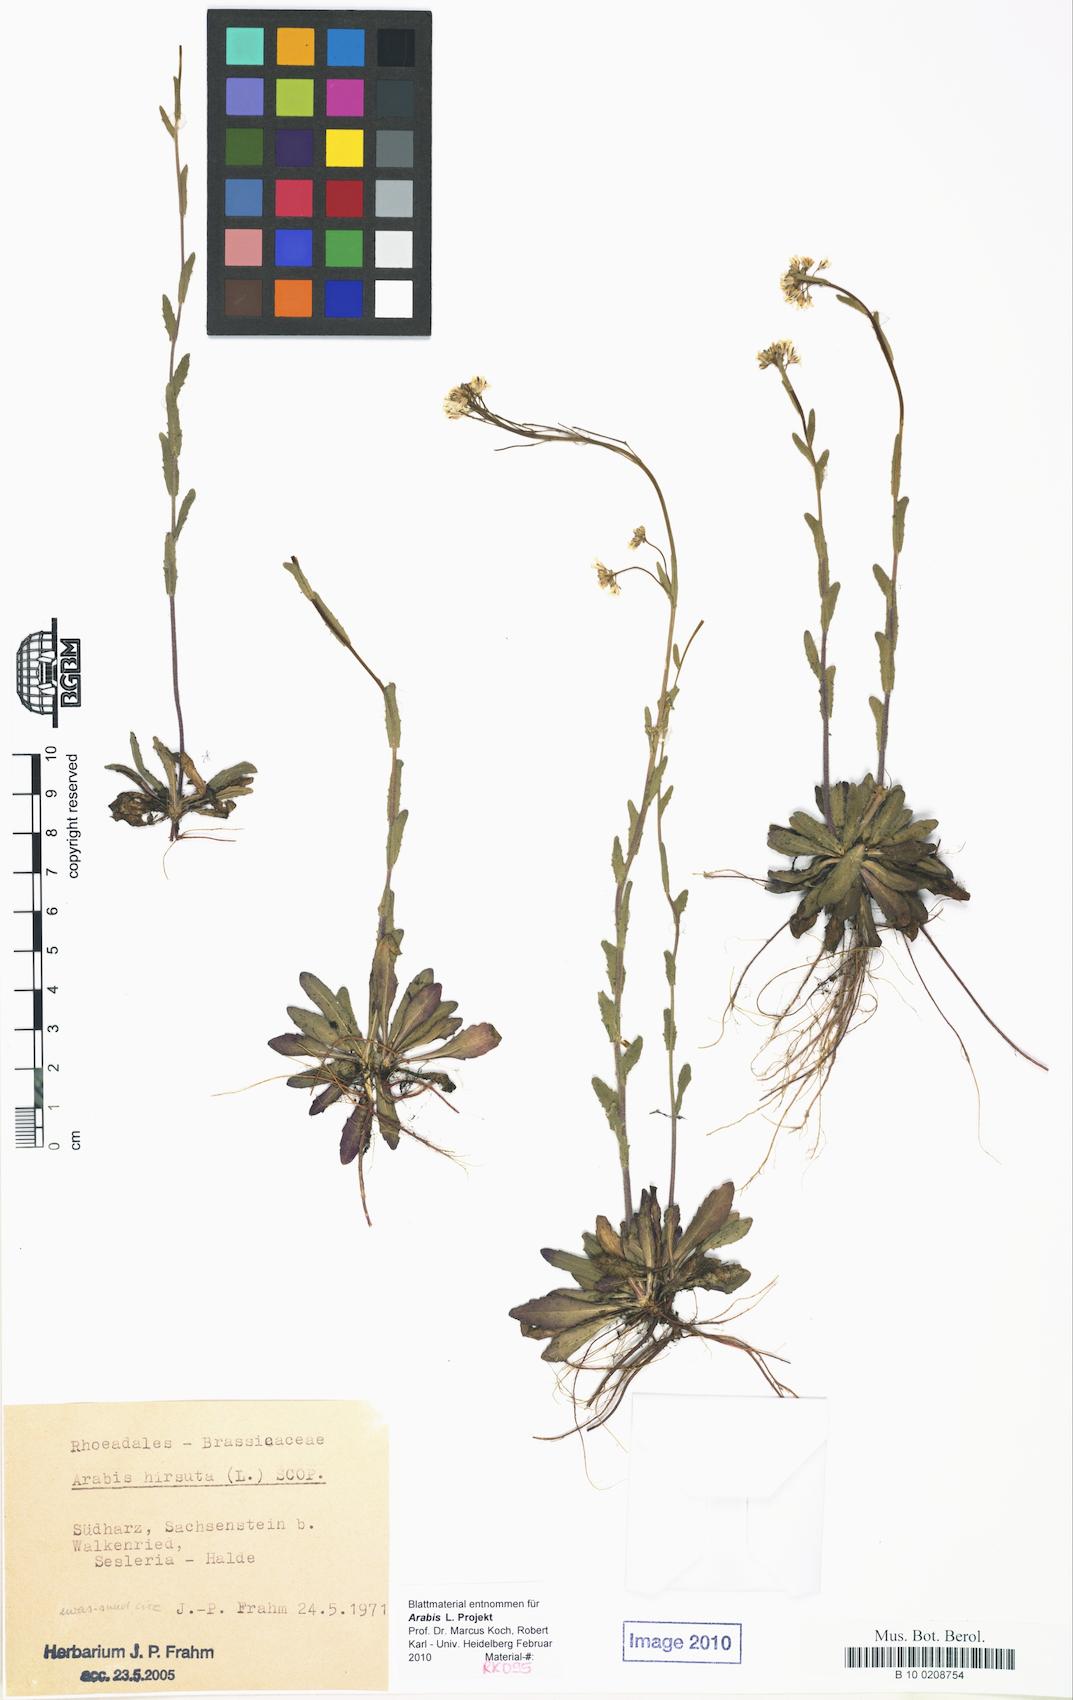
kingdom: Plantae
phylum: Tracheophyta
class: Magnoliopsida
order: Brassicales
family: Brassicaceae
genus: Arabis
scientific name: Arabis hirsuta
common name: Hairy rock-cress
